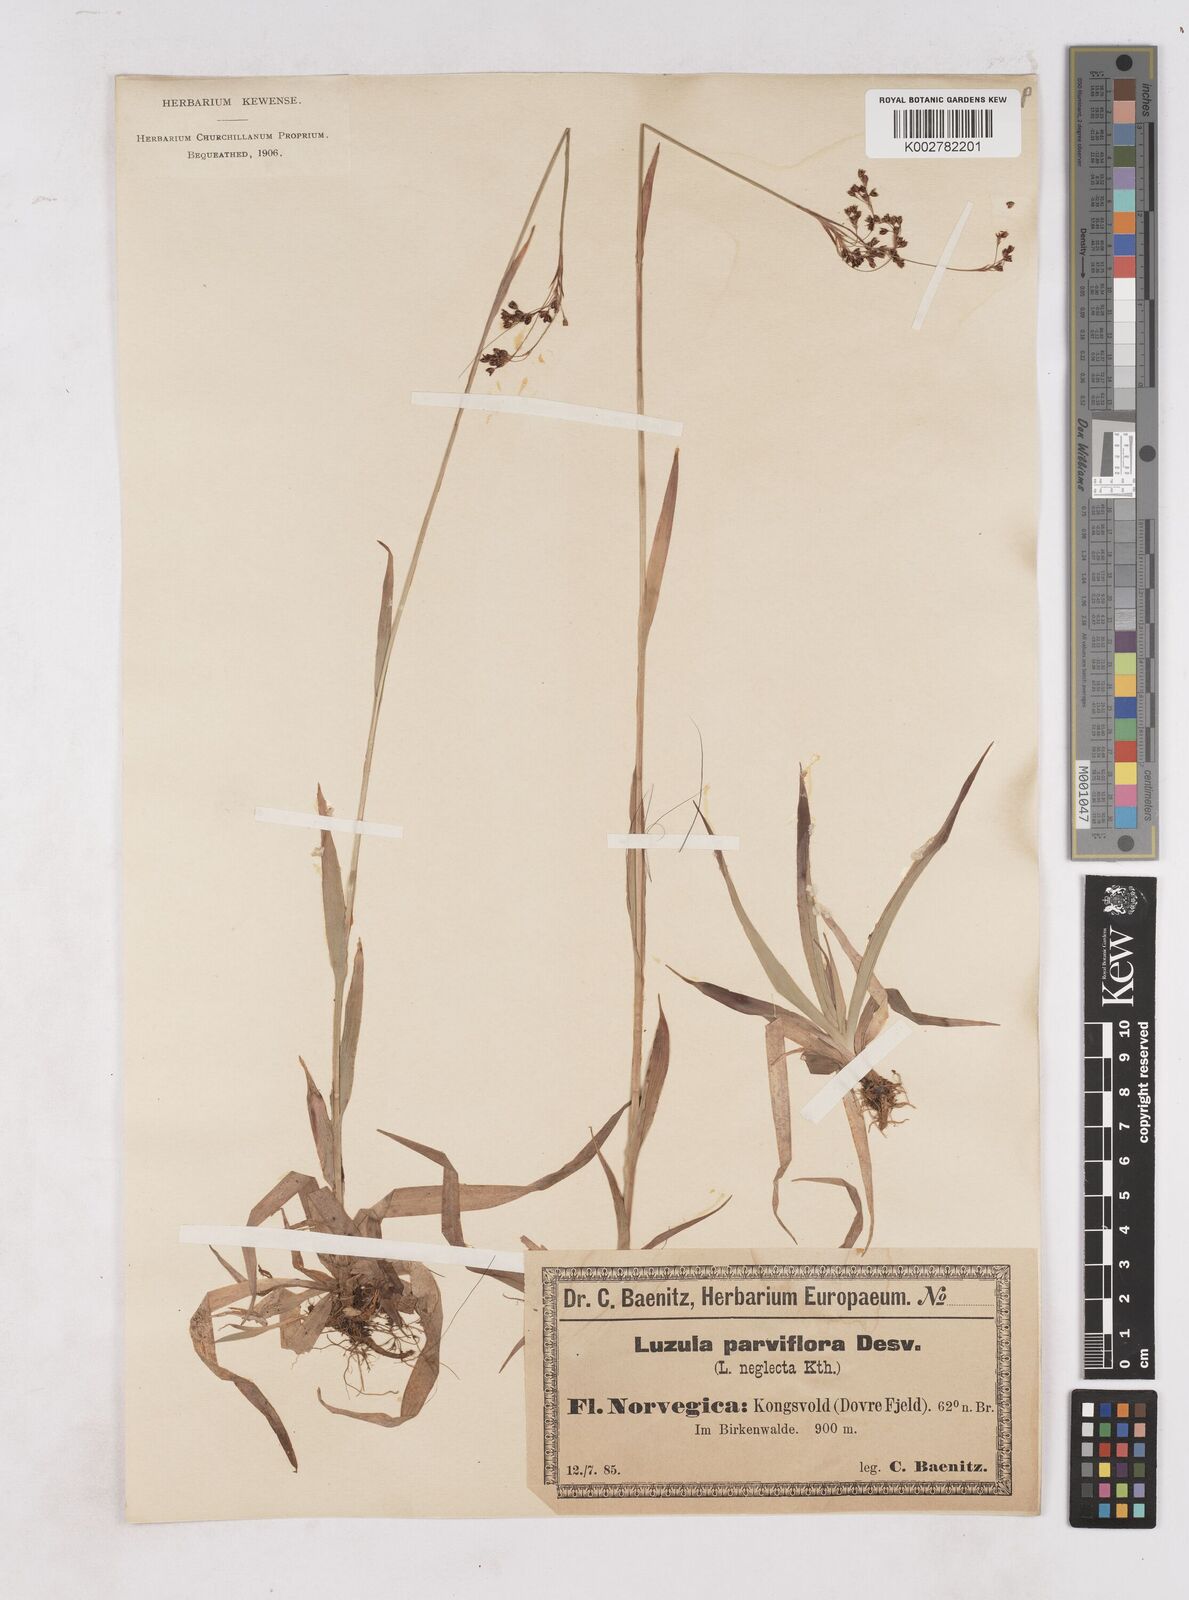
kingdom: Plantae
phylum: Tracheophyta
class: Liliopsida
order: Poales
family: Juncaceae
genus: Luzula
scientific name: Luzula parviflora
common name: Millet woodrush
